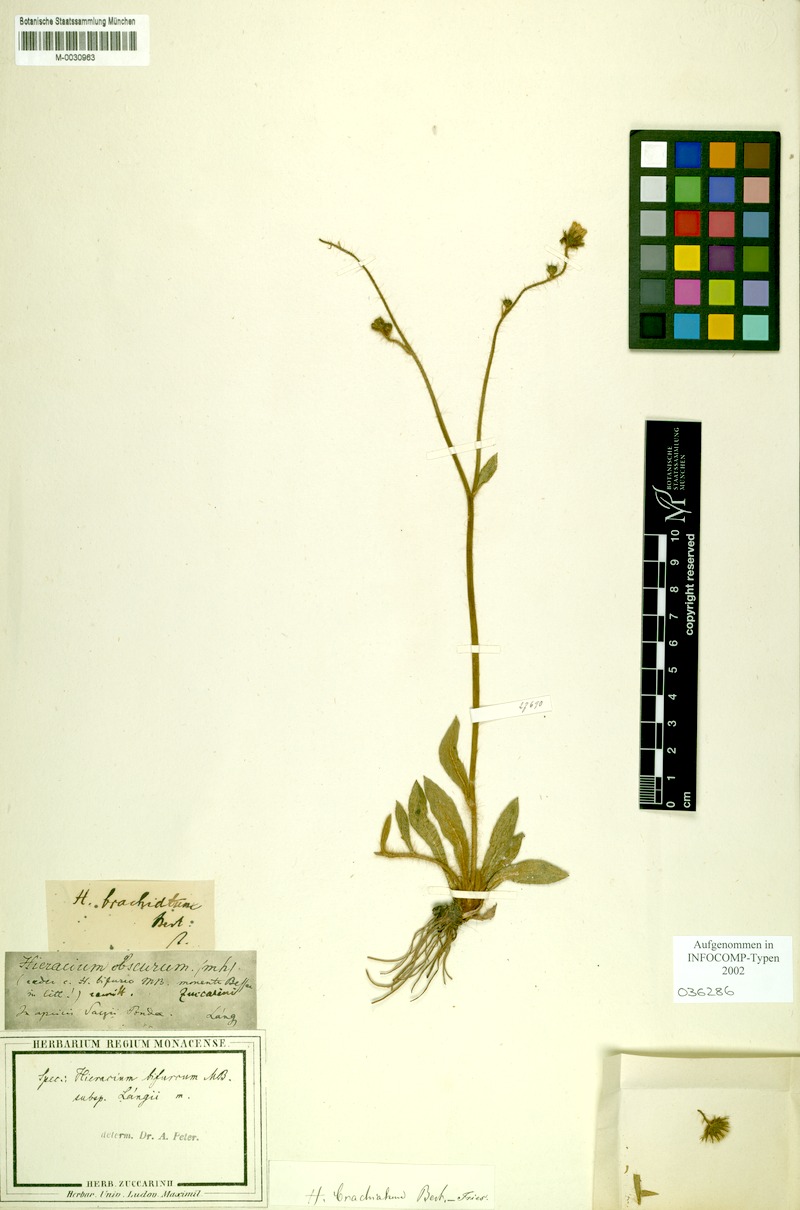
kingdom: Plantae
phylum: Tracheophyta
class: Magnoliopsida
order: Asterales
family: Asteraceae
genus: Pilosella
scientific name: Pilosella bifurca
